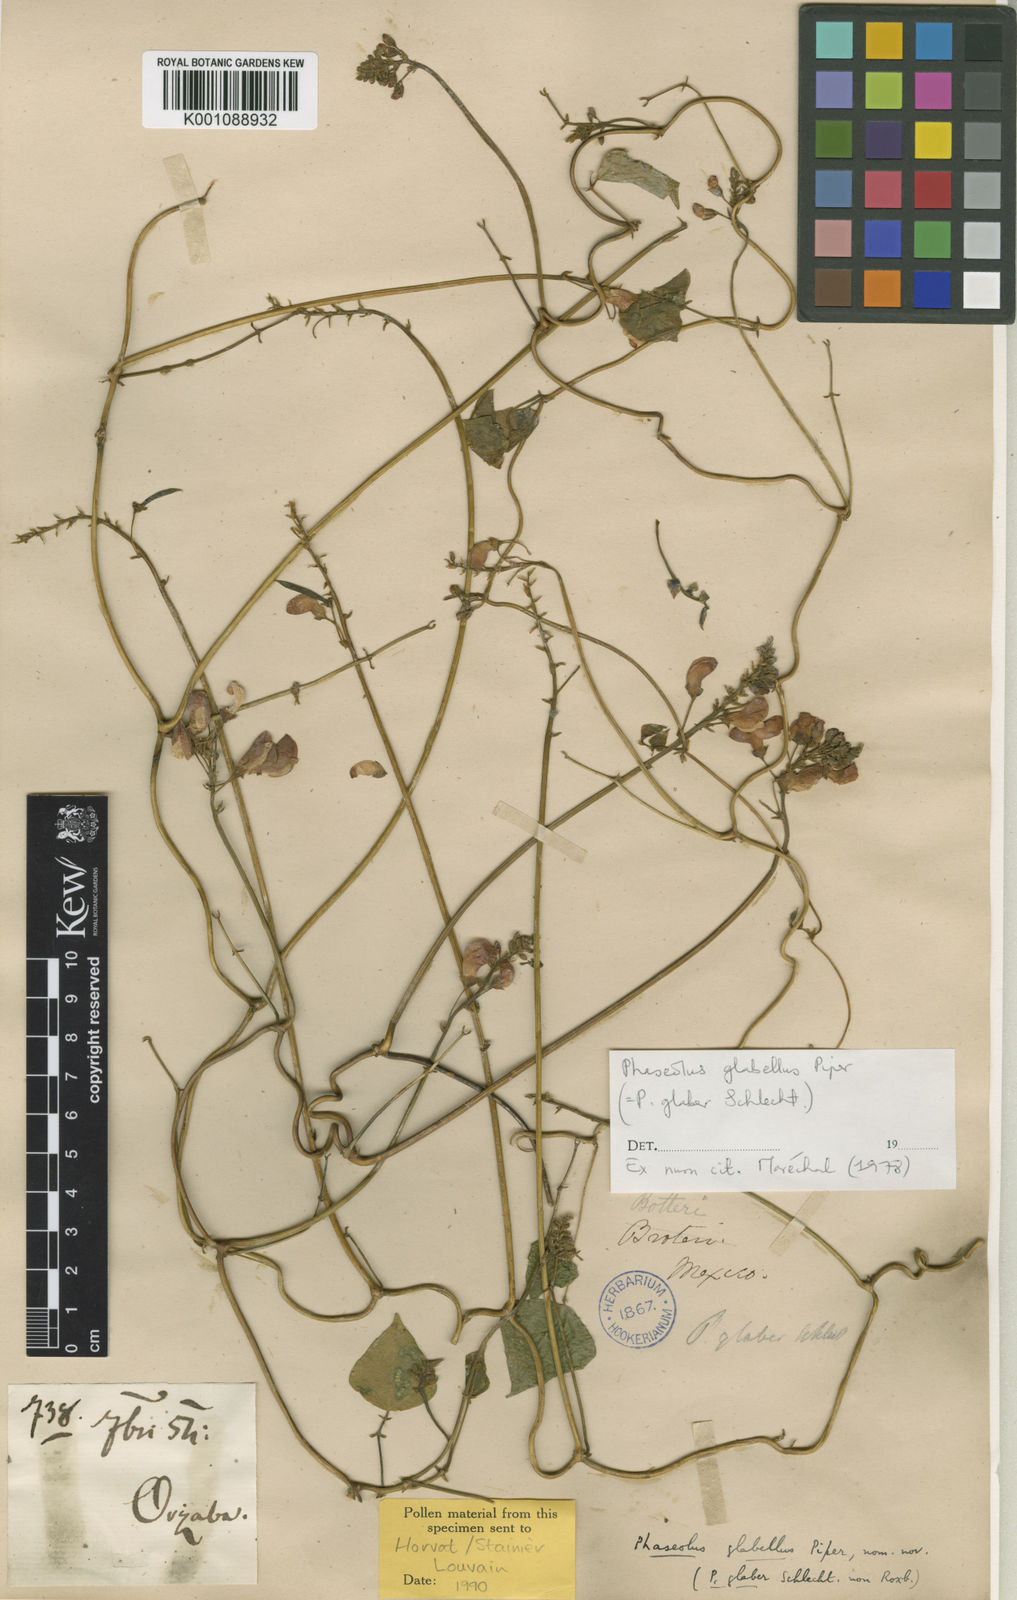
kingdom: Plantae
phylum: Tracheophyta
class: Magnoliopsida
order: Fabales
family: Fabaceae
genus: Phaseolus
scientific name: Phaseolus glabellus
